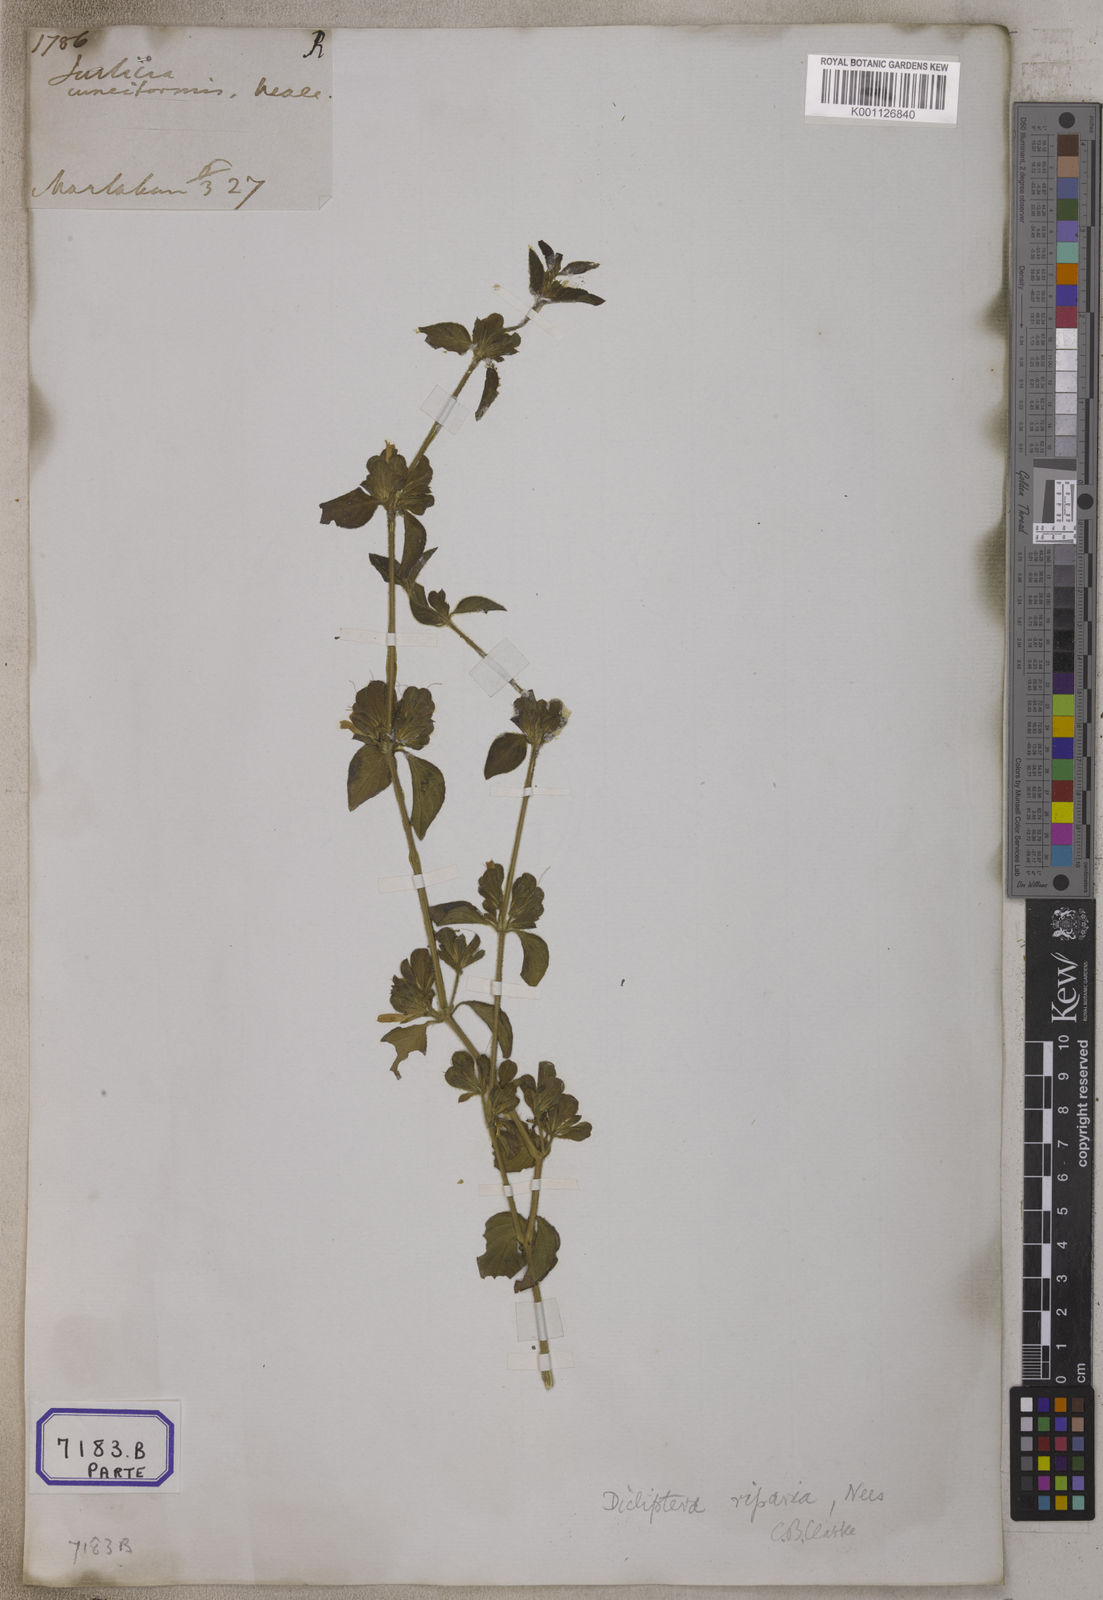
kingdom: Plantae
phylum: Tracheophyta
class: Magnoliopsida
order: Lamiales
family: Acanthaceae
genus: Dicliptera
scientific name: Dicliptera riparia
